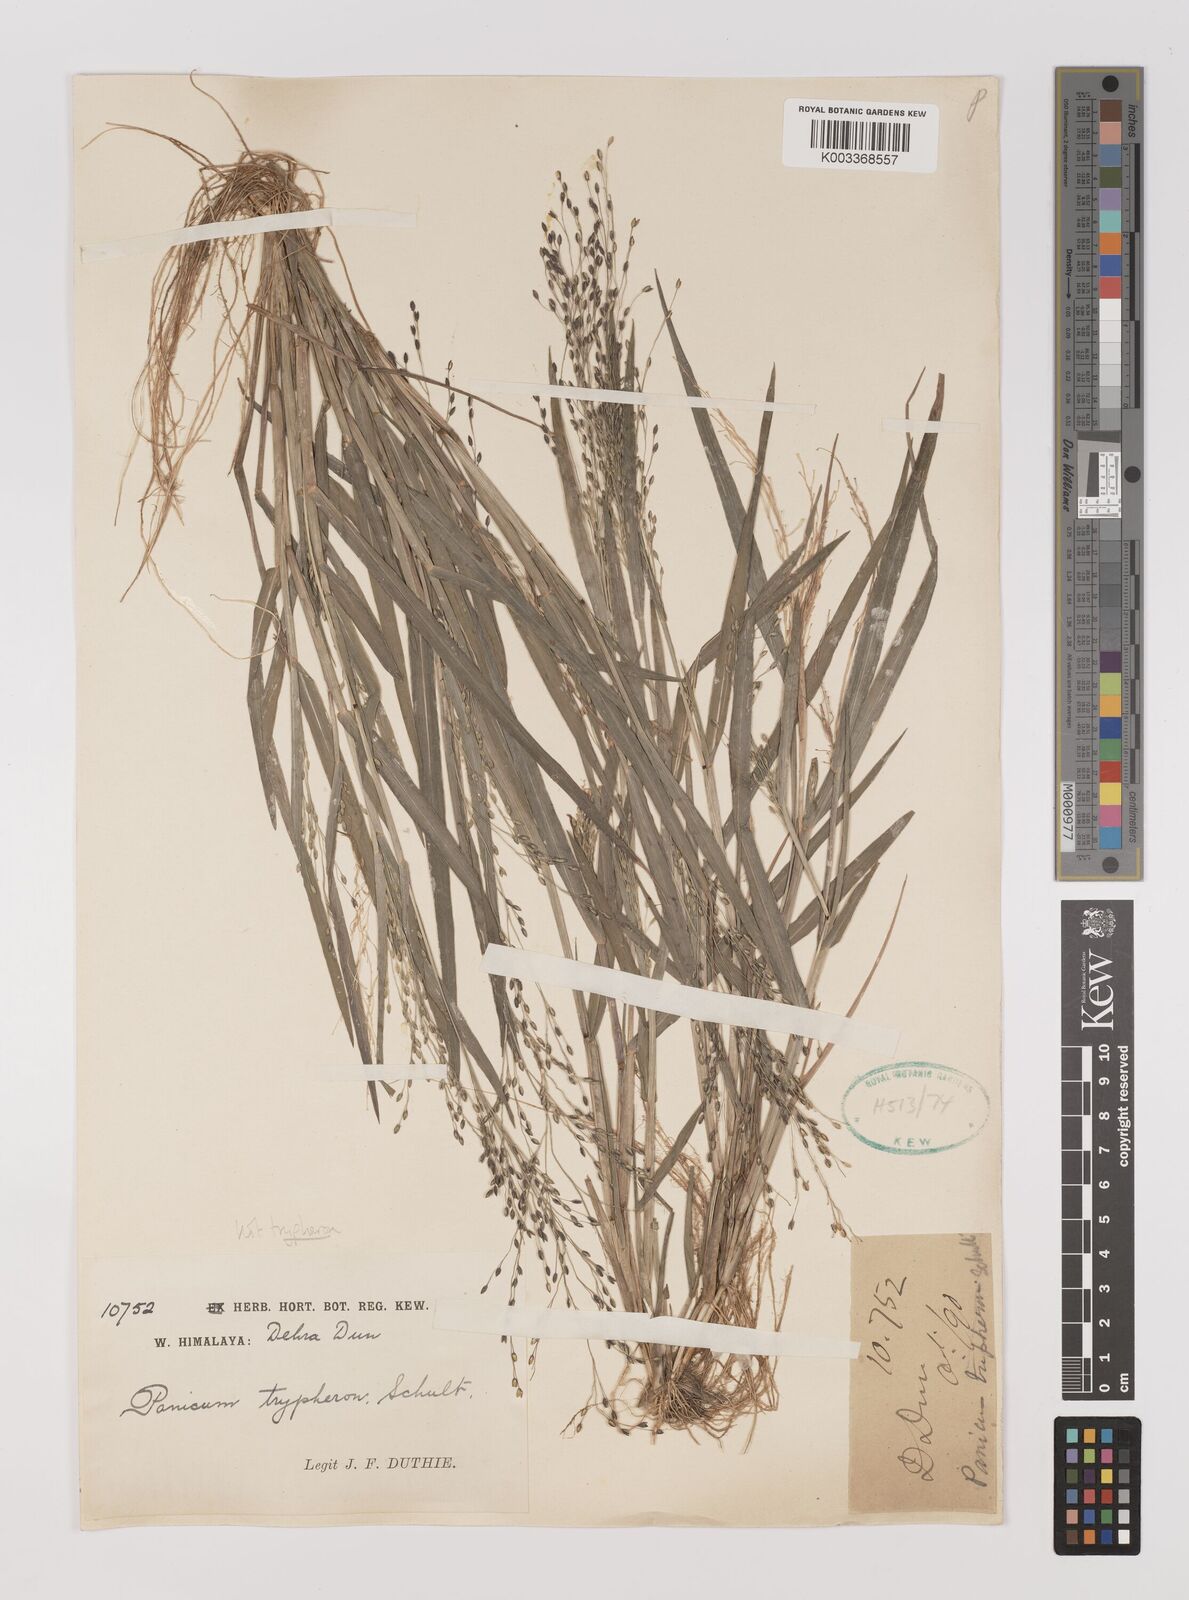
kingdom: Plantae
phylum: Tracheophyta
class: Liliopsida
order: Poales
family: Poaceae
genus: Panicum
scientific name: Panicum sumatrense
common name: Little millet
